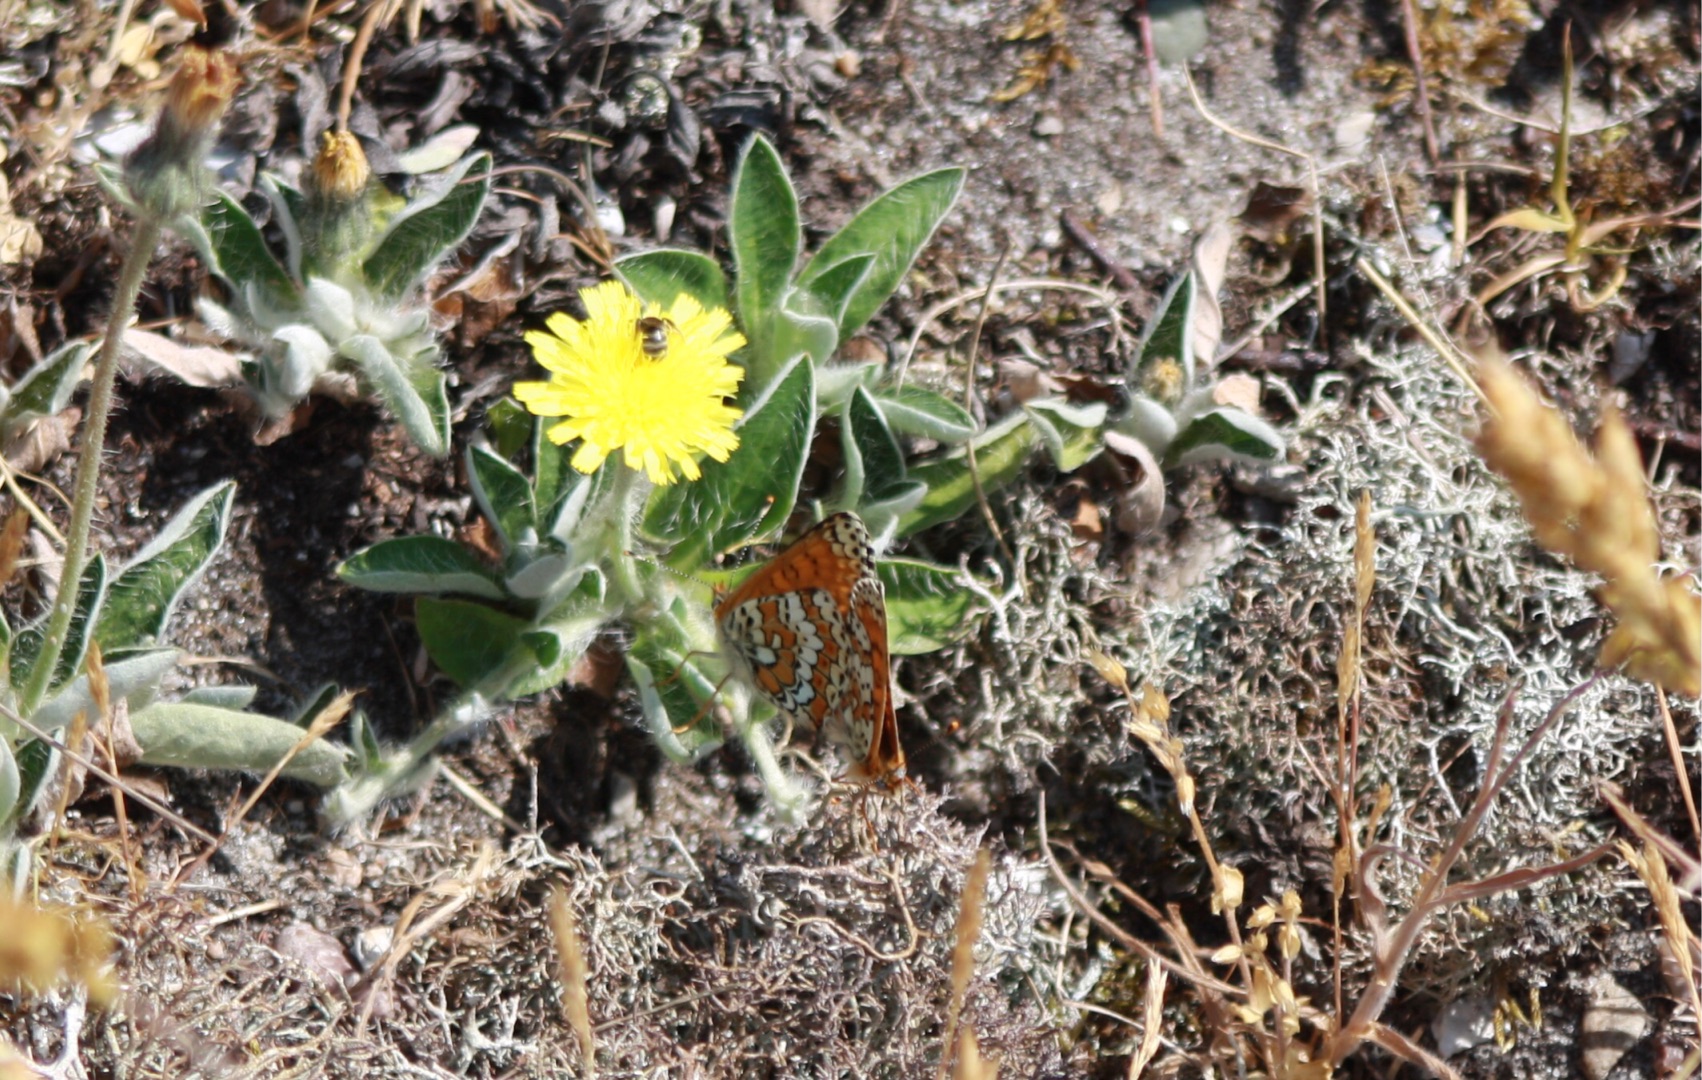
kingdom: Animalia
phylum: Arthropoda
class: Insecta
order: Lepidoptera
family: Nymphalidae
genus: Melitaea
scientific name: Melitaea cinxia
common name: Okkergul pletvinge
